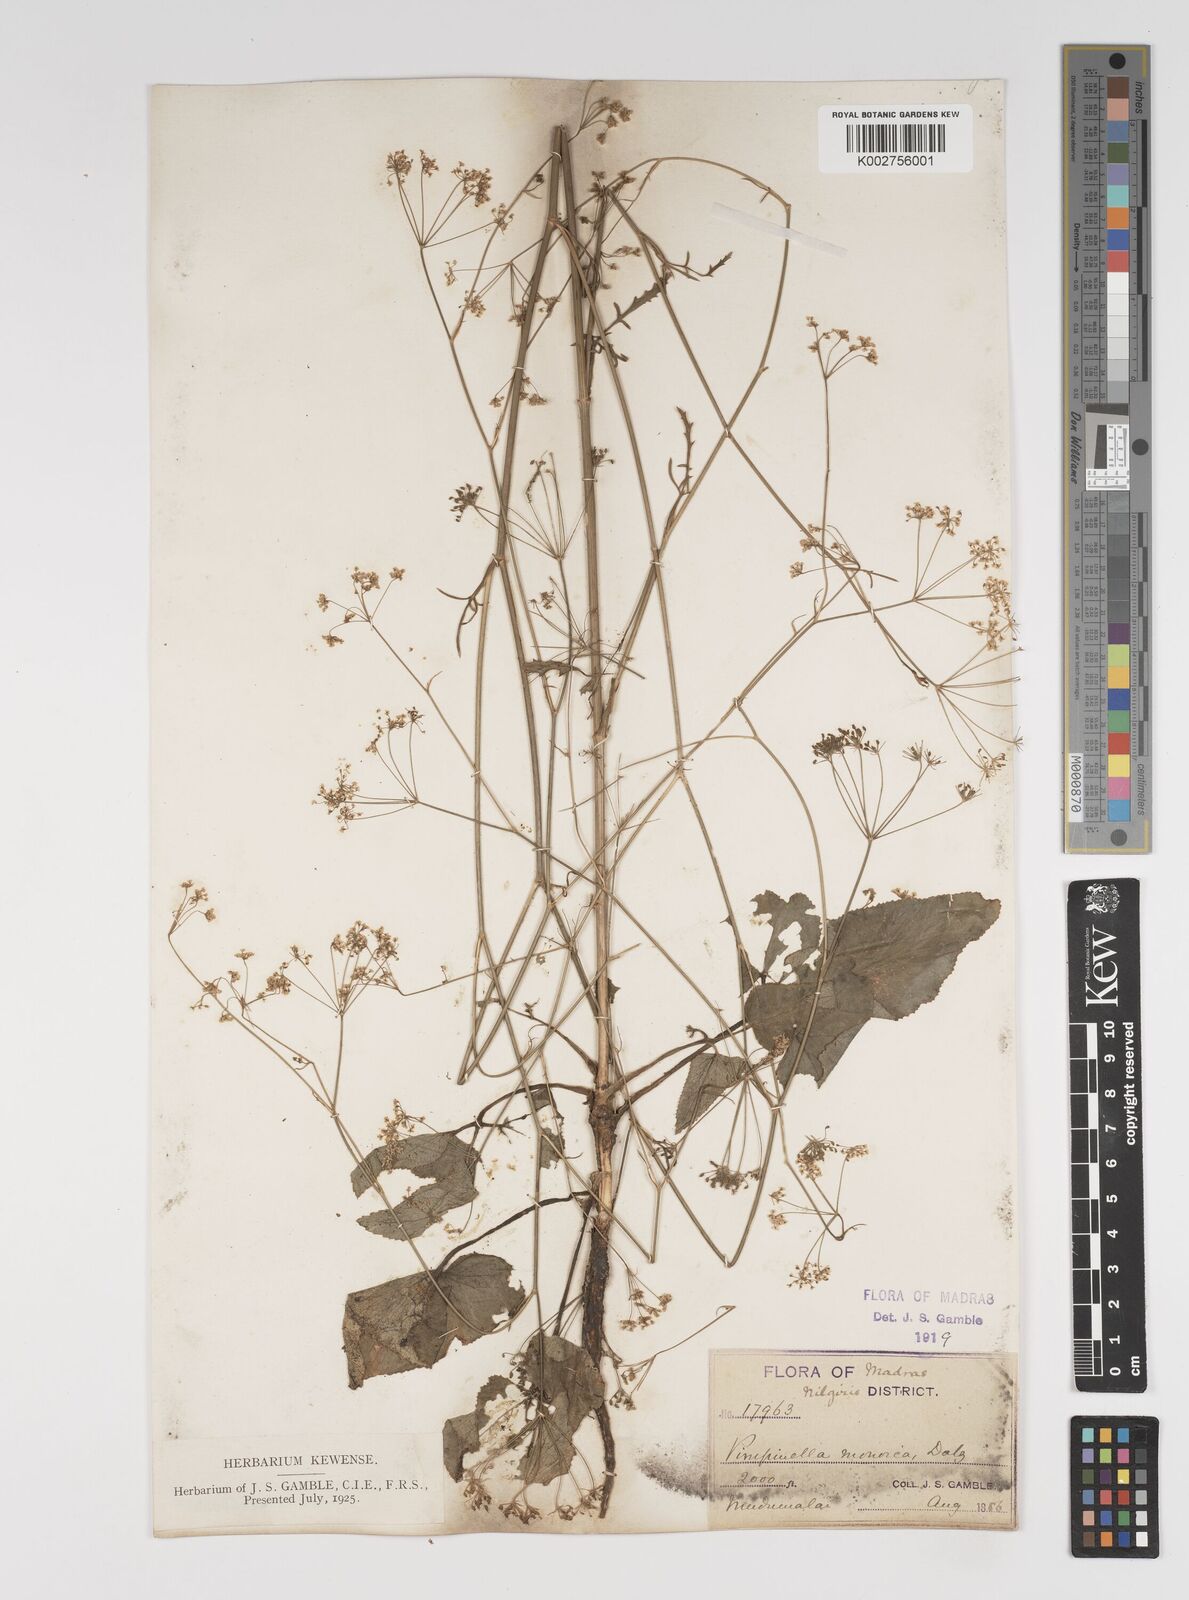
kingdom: Plantae
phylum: Tracheophyta
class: Magnoliopsida
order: Apiales
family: Apiaceae
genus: Pimpinella
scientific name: Pimpinella wallichiana
